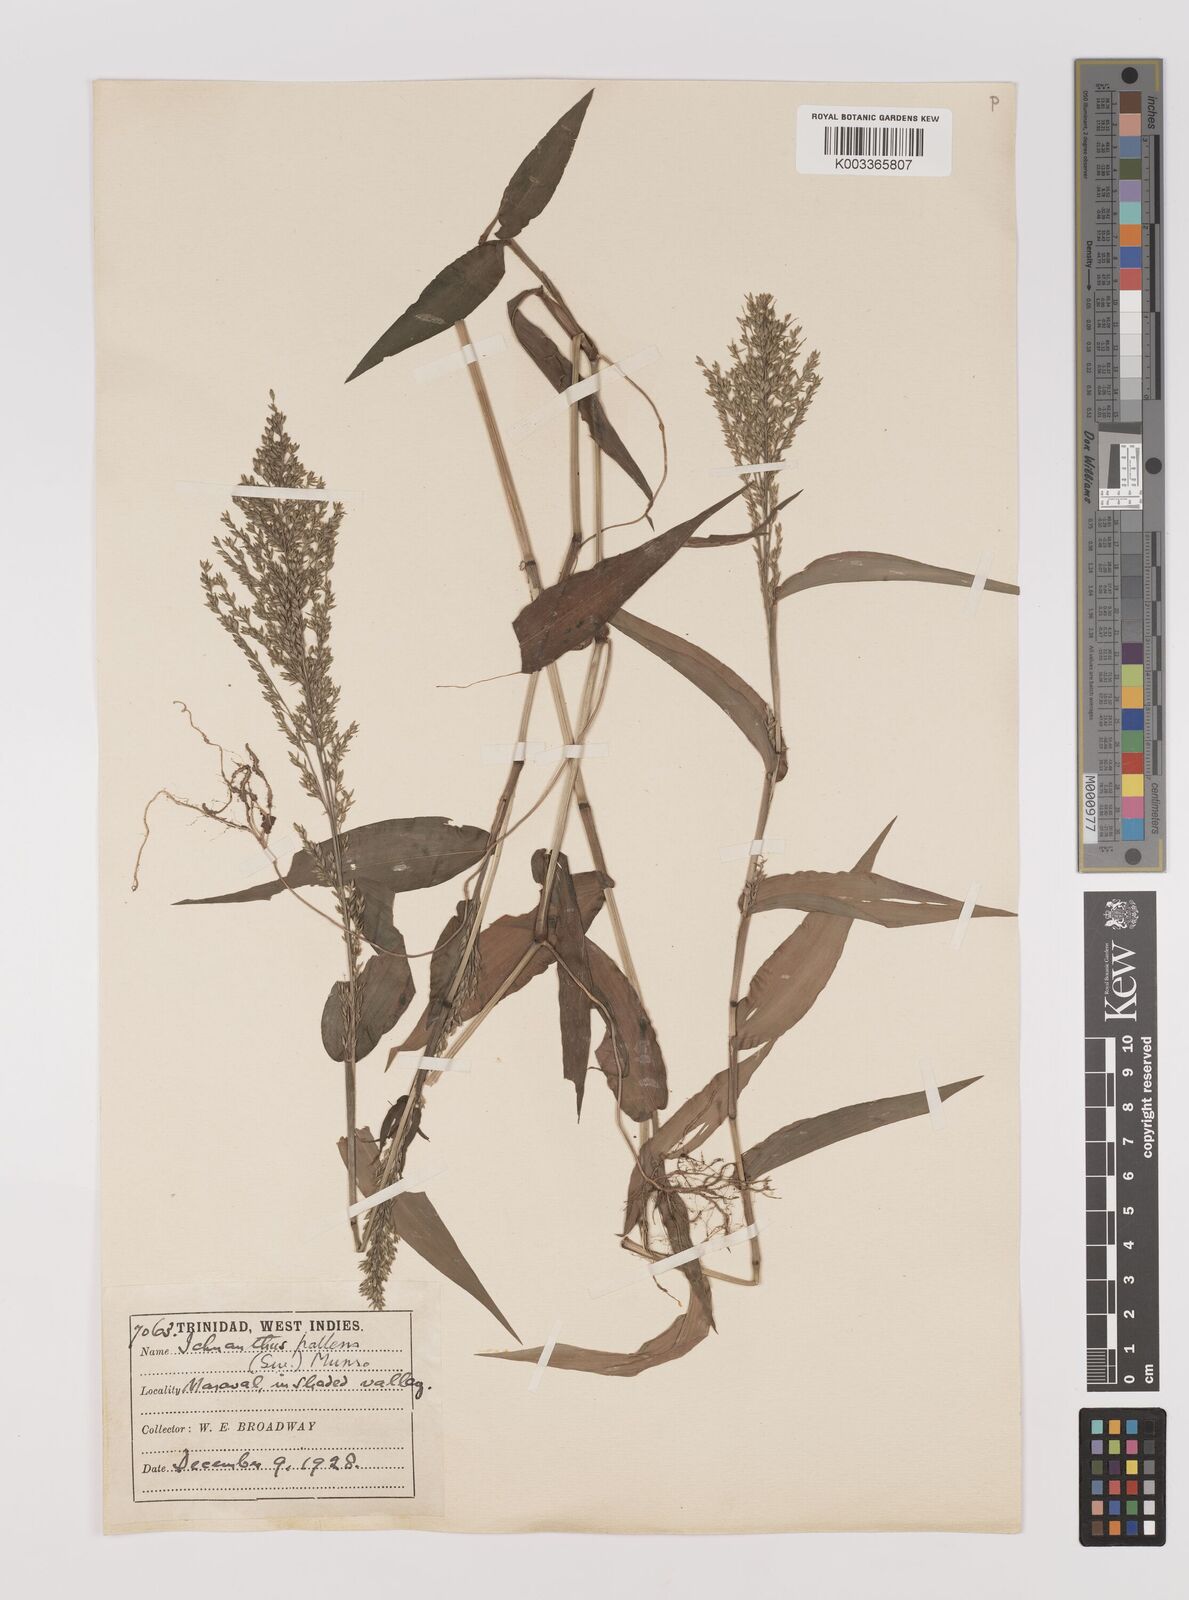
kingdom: Plantae
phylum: Tracheophyta
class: Liliopsida
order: Poales
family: Poaceae
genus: Ichnanthus
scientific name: Ichnanthus pallens
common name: Water grass
